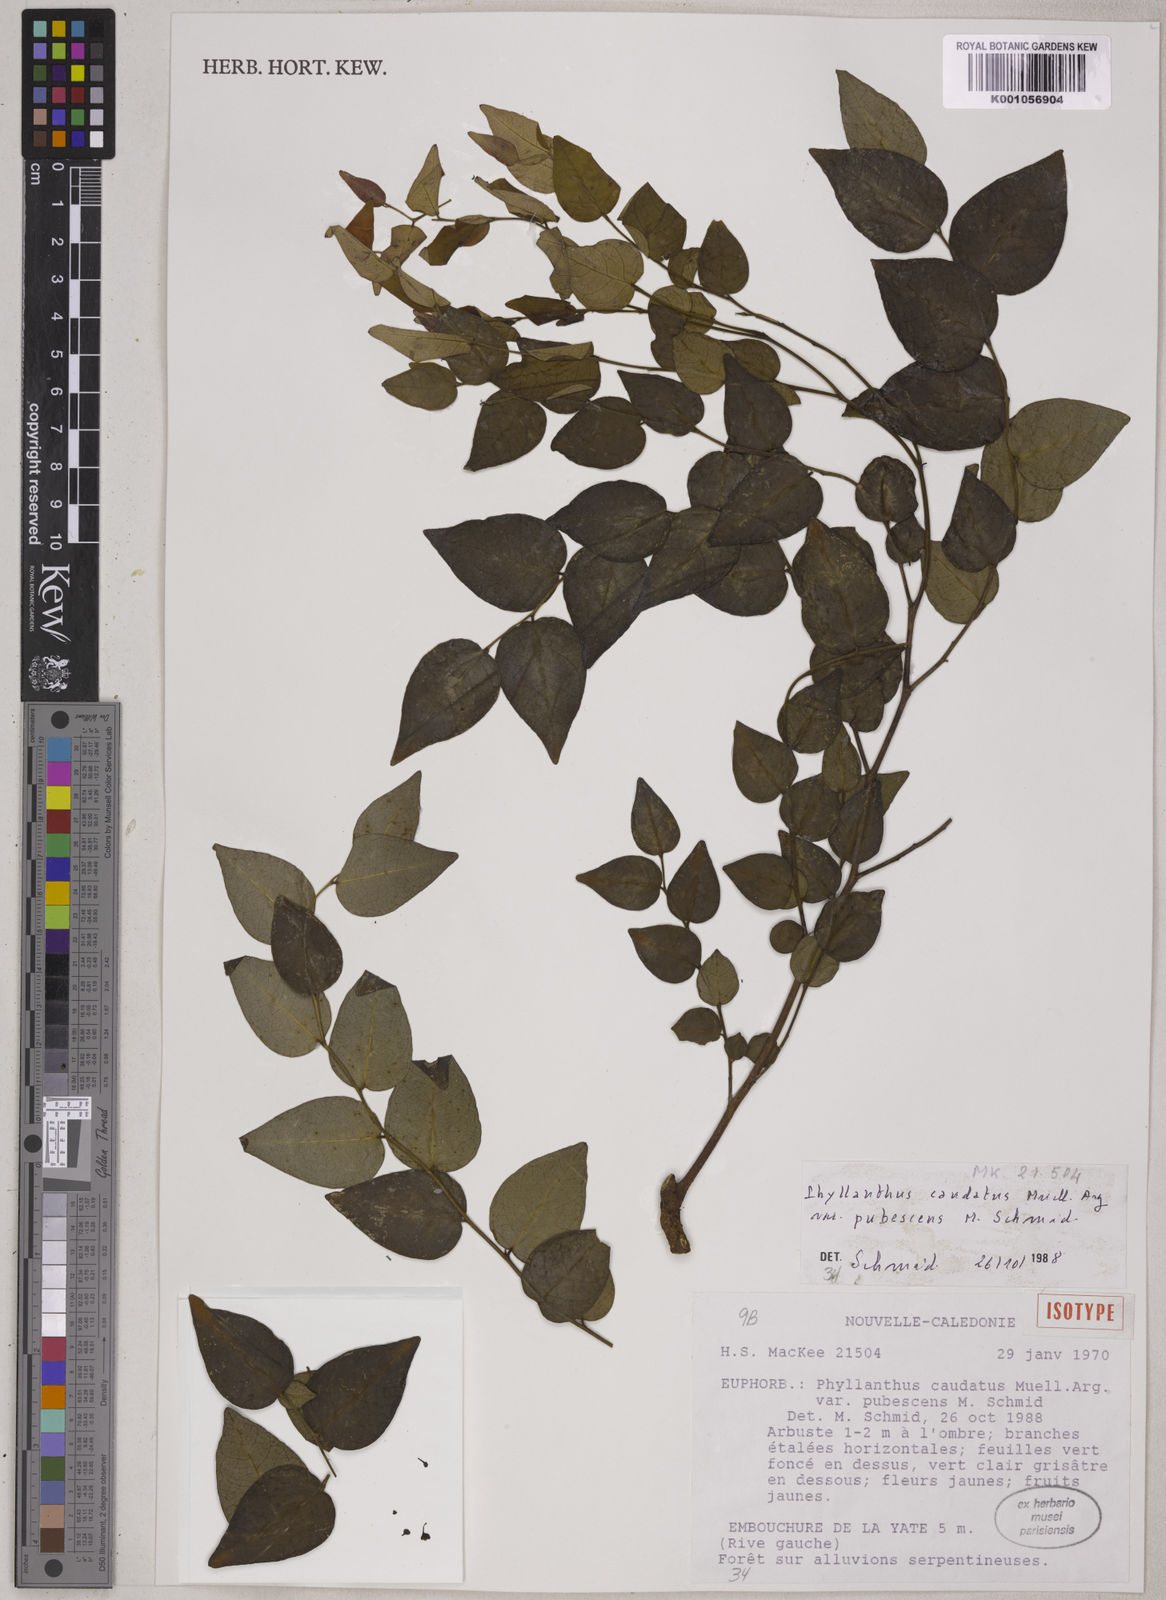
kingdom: Plantae
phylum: Tracheophyta
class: Magnoliopsida
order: Malpighiales
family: Phyllanthaceae
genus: Phyllanthus
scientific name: Phyllanthus
